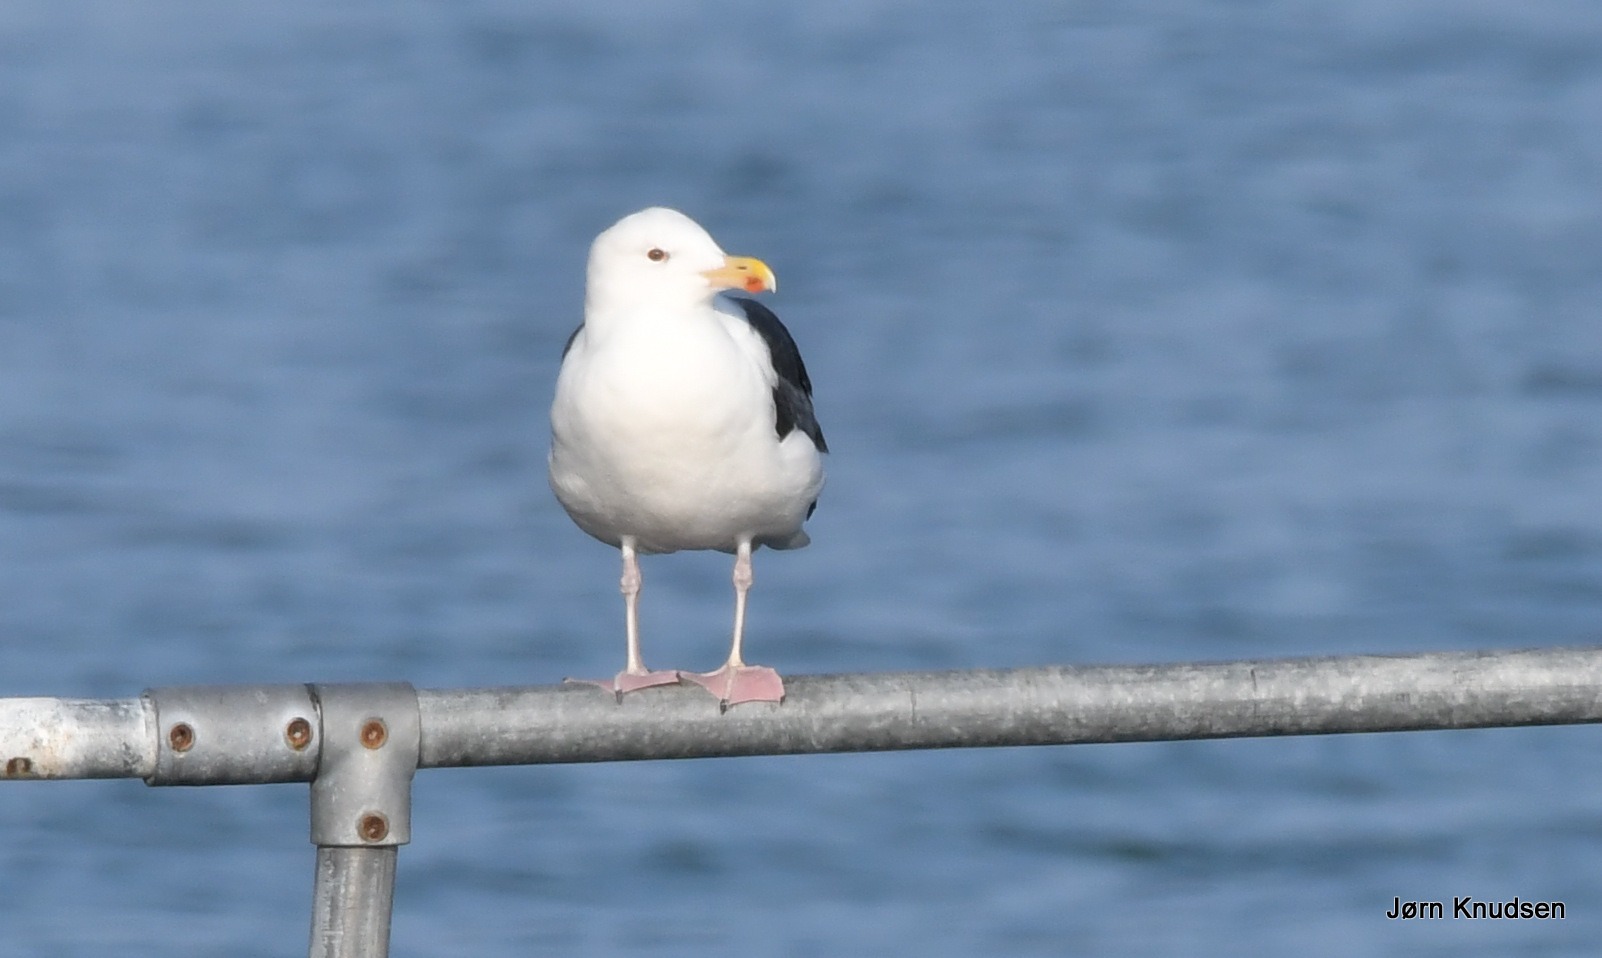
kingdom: Animalia
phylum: Chordata
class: Aves
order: Charadriiformes
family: Laridae
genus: Larus
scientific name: Larus marinus
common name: Svartbag
